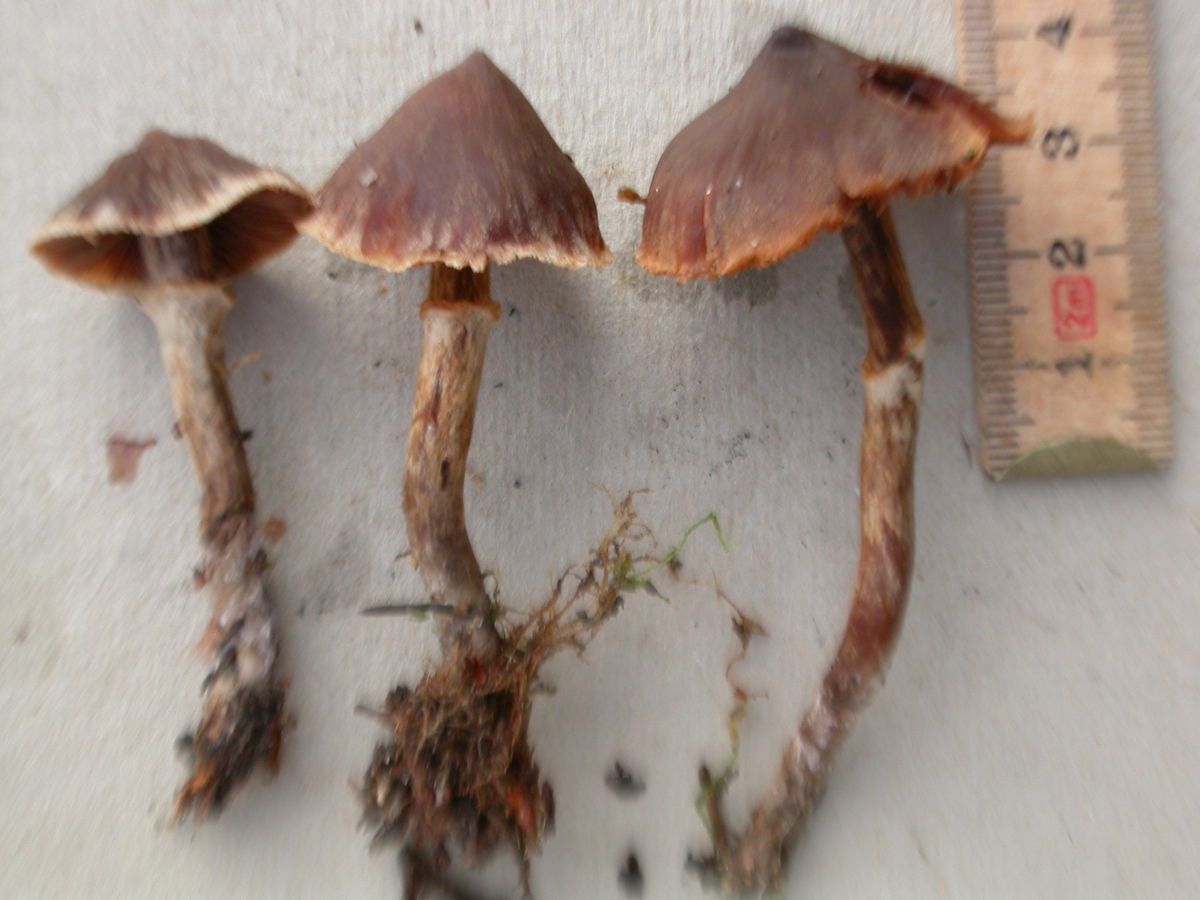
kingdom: Fungi
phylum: Basidiomycota
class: Agaricomycetes
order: Agaricales
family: Cortinariaceae
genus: Cortinarius
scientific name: Cortinarius fusisporus
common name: brunfnugget slørhat
